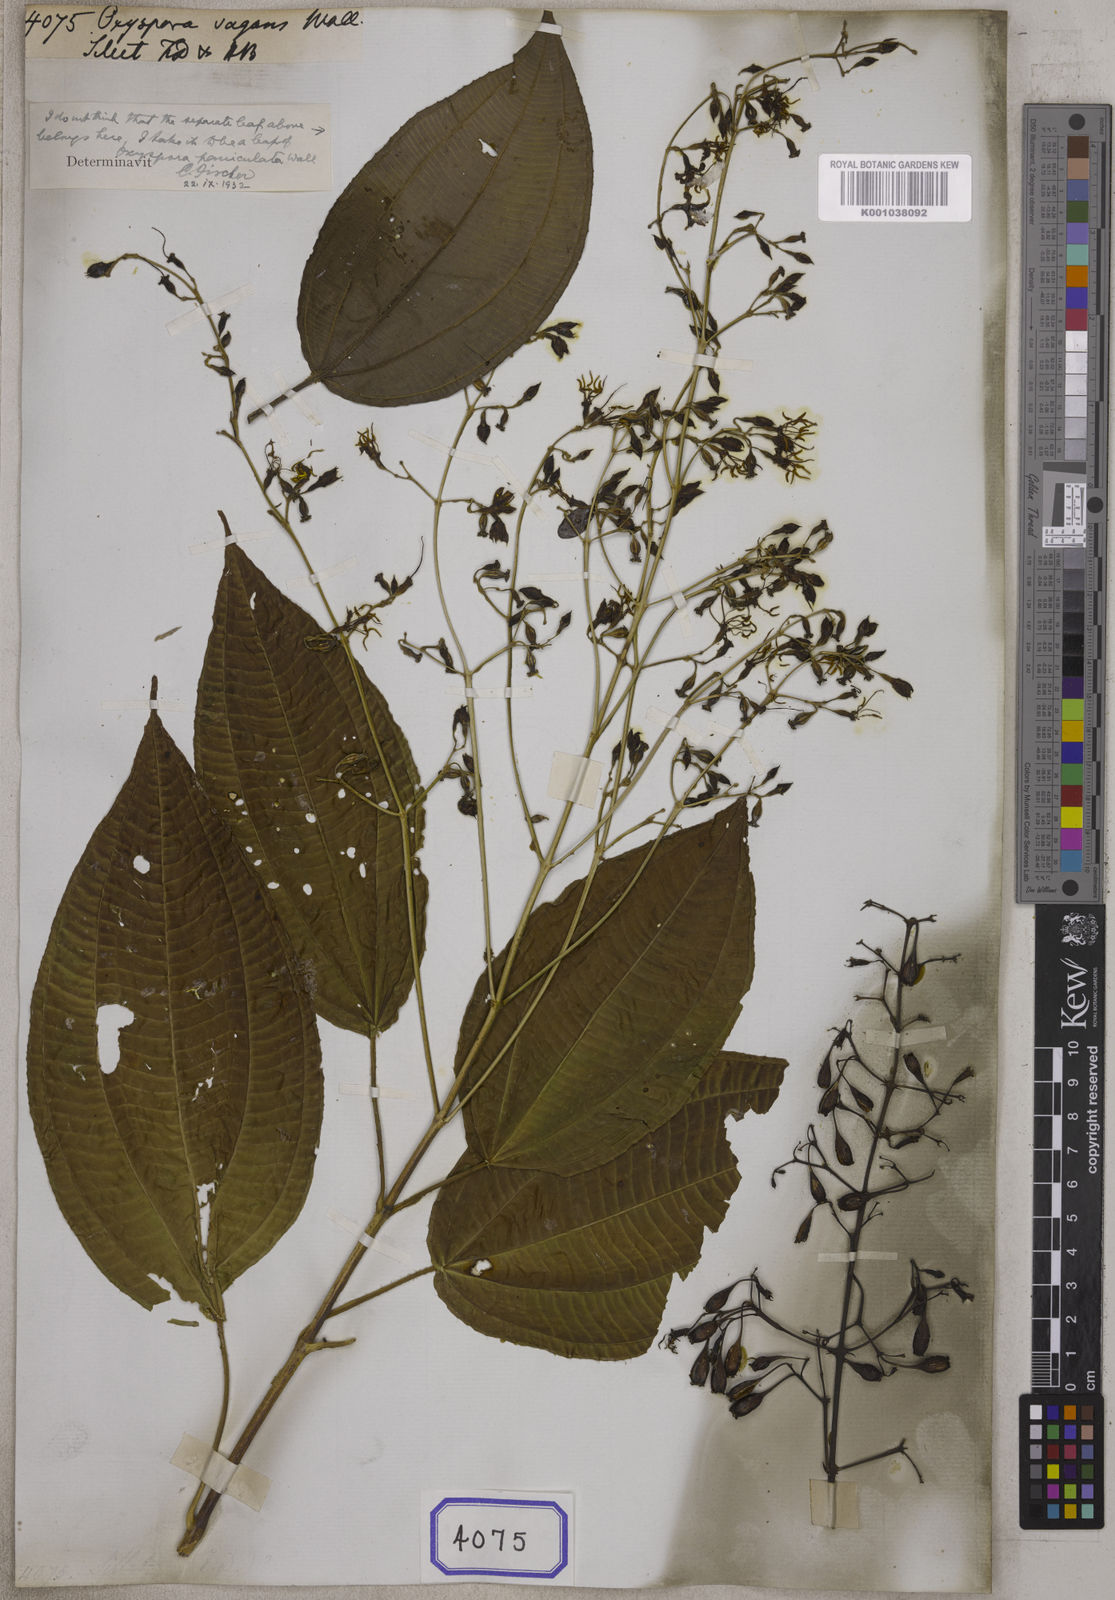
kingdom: Plantae
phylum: Tracheophyta
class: Magnoliopsida
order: Myrtales
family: Melastomataceae
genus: Oxyspora
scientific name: Oxyspora vagans
